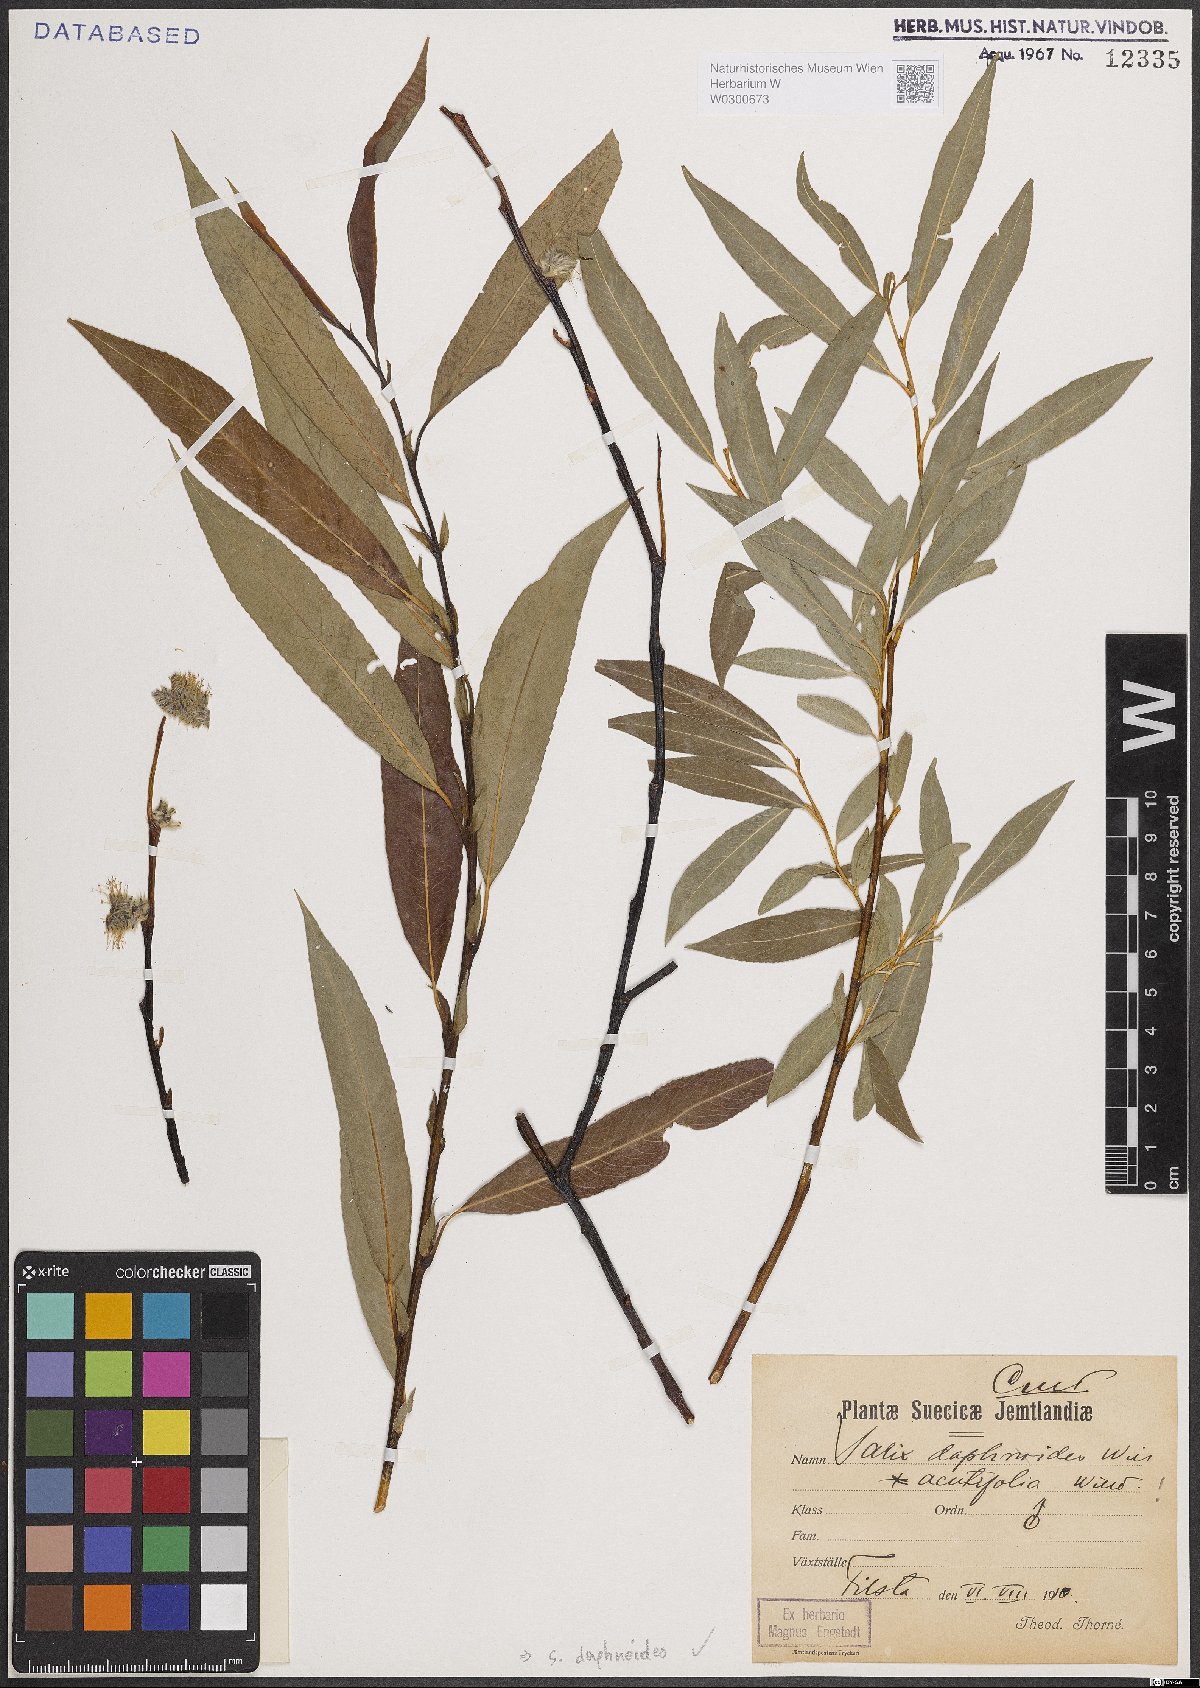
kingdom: Plantae
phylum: Tracheophyta
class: Magnoliopsida
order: Malpighiales
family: Salicaceae
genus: Salix
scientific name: Salix daphnoides
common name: European violet-willow
